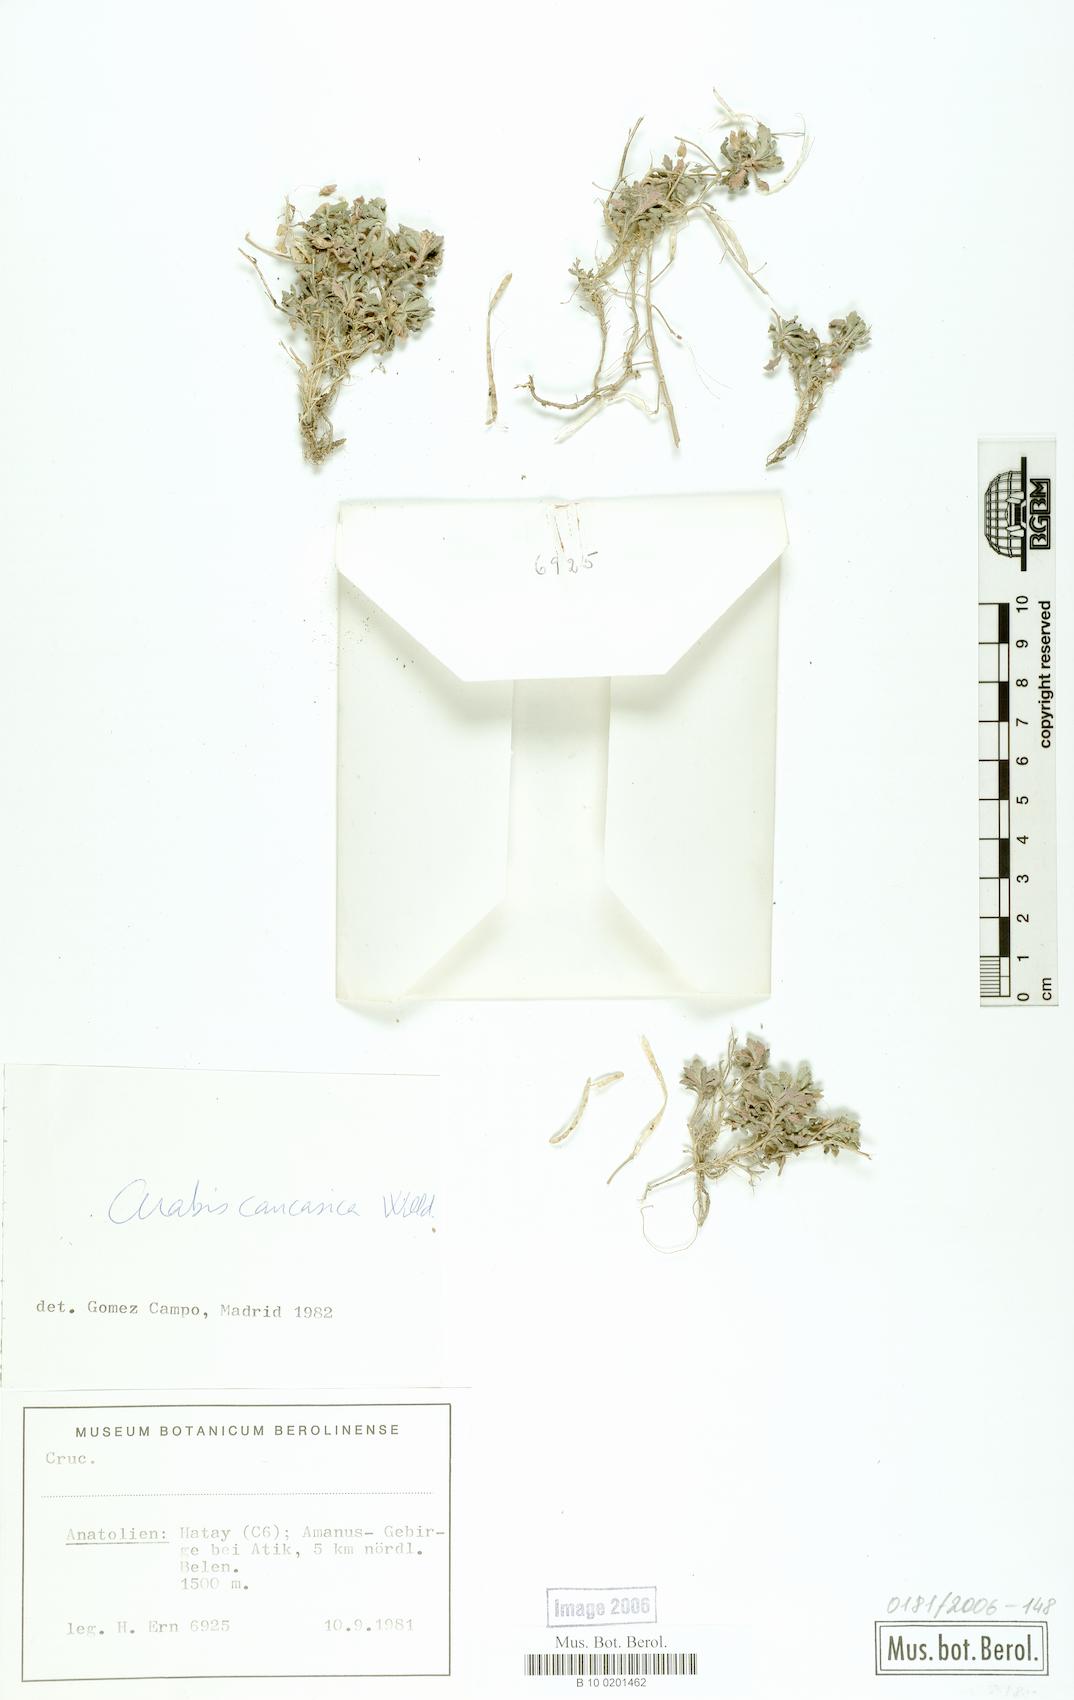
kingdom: Plantae
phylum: Tracheophyta
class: Magnoliopsida
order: Brassicales
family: Brassicaceae
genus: Arabis
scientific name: Arabis caucasica
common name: Gray rockcress
